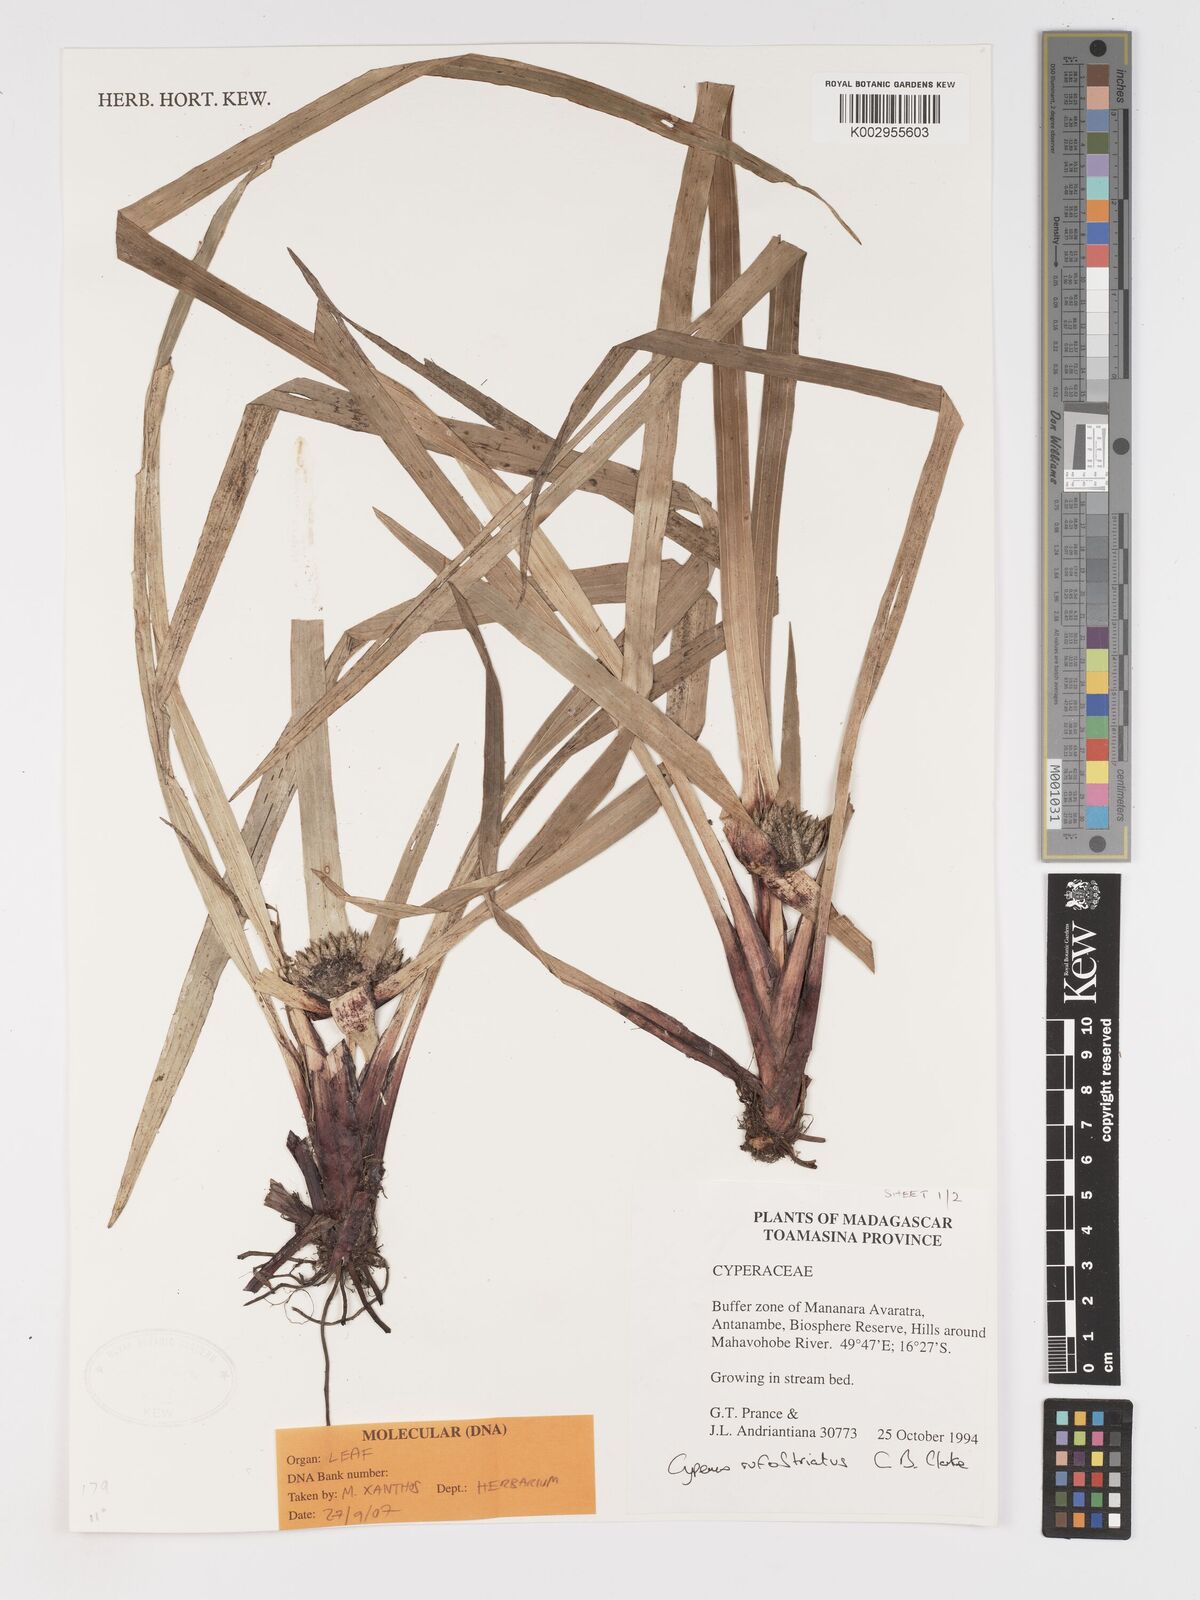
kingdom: Plantae
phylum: Tracheophyta
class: Liliopsida
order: Poales
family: Cyperaceae
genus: Cyperus
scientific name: Cyperus rufostriatus
